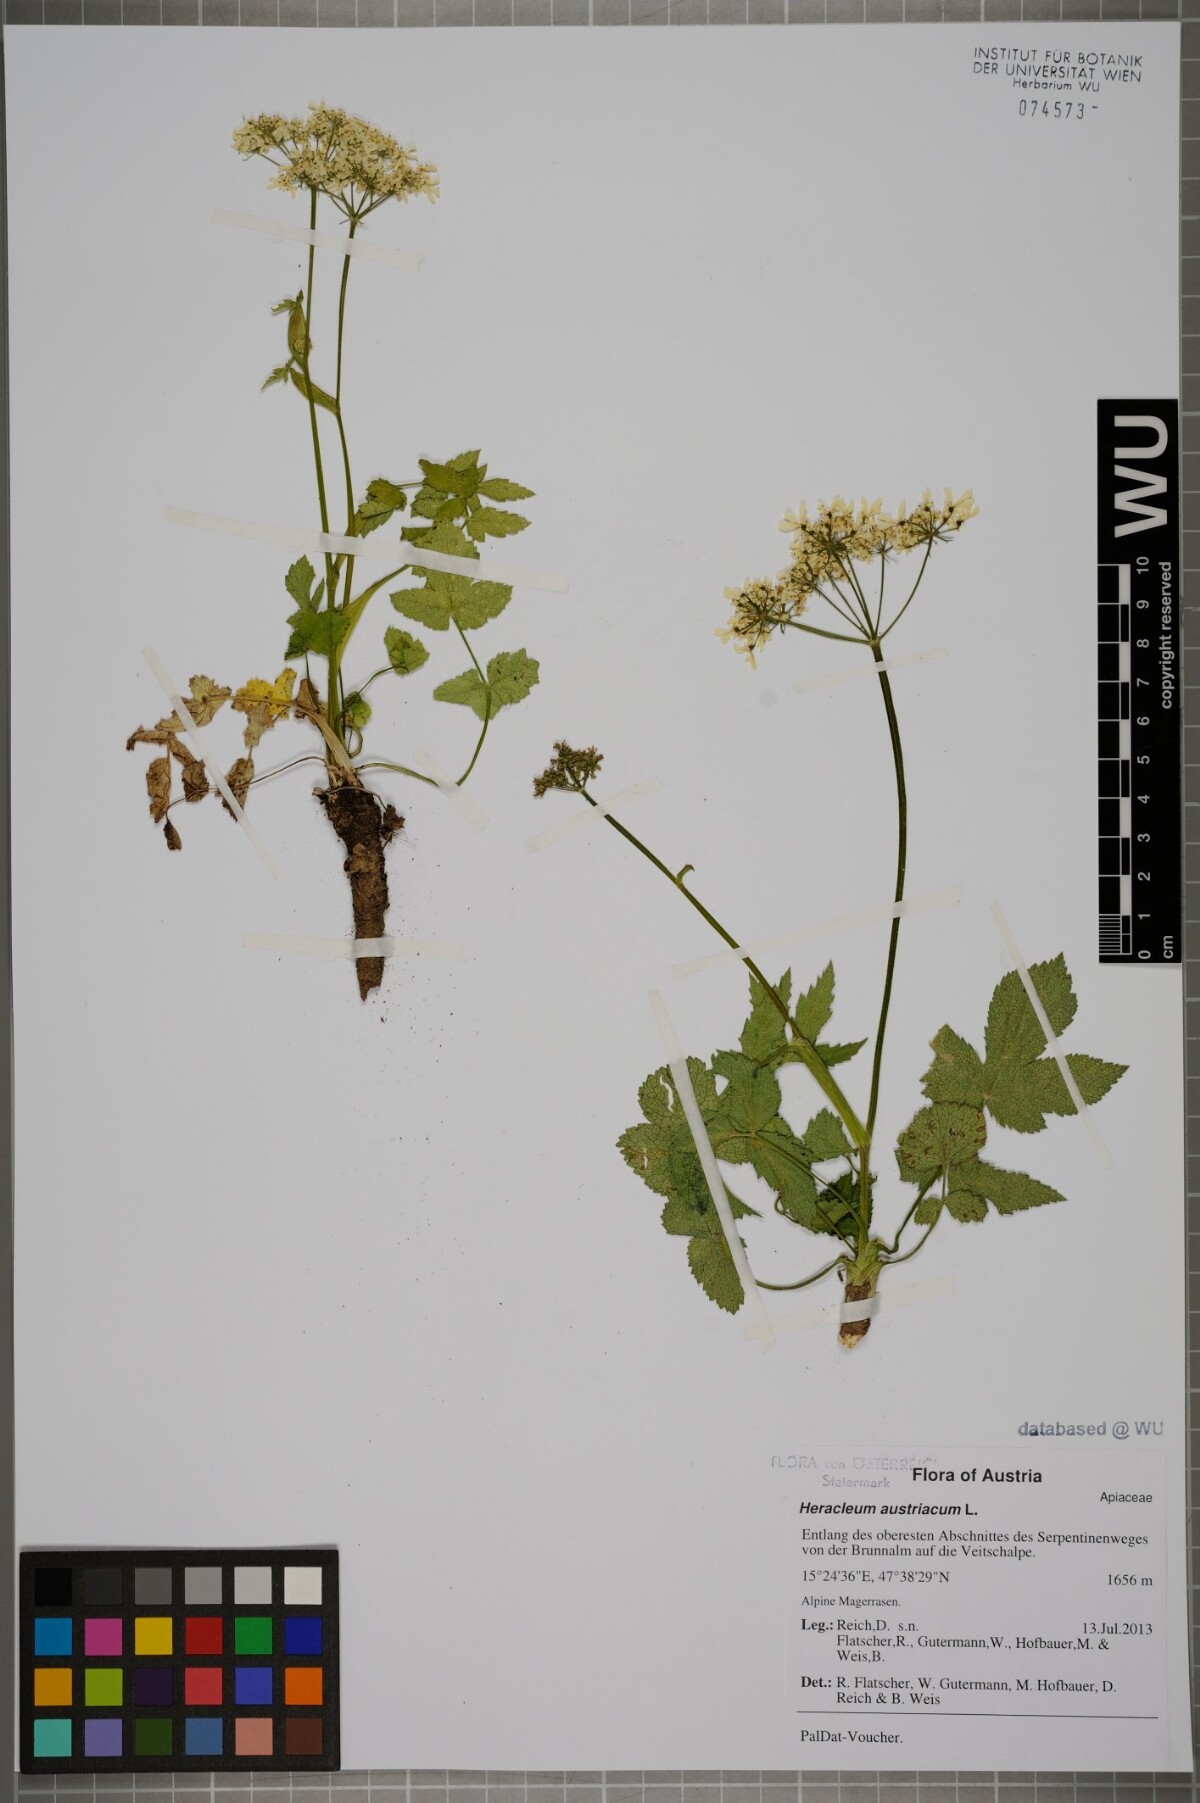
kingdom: Plantae
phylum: Tracheophyta
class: Magnoliopsida
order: Apiales
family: Apiaceae
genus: Heracleum
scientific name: Heracleum austriacum
